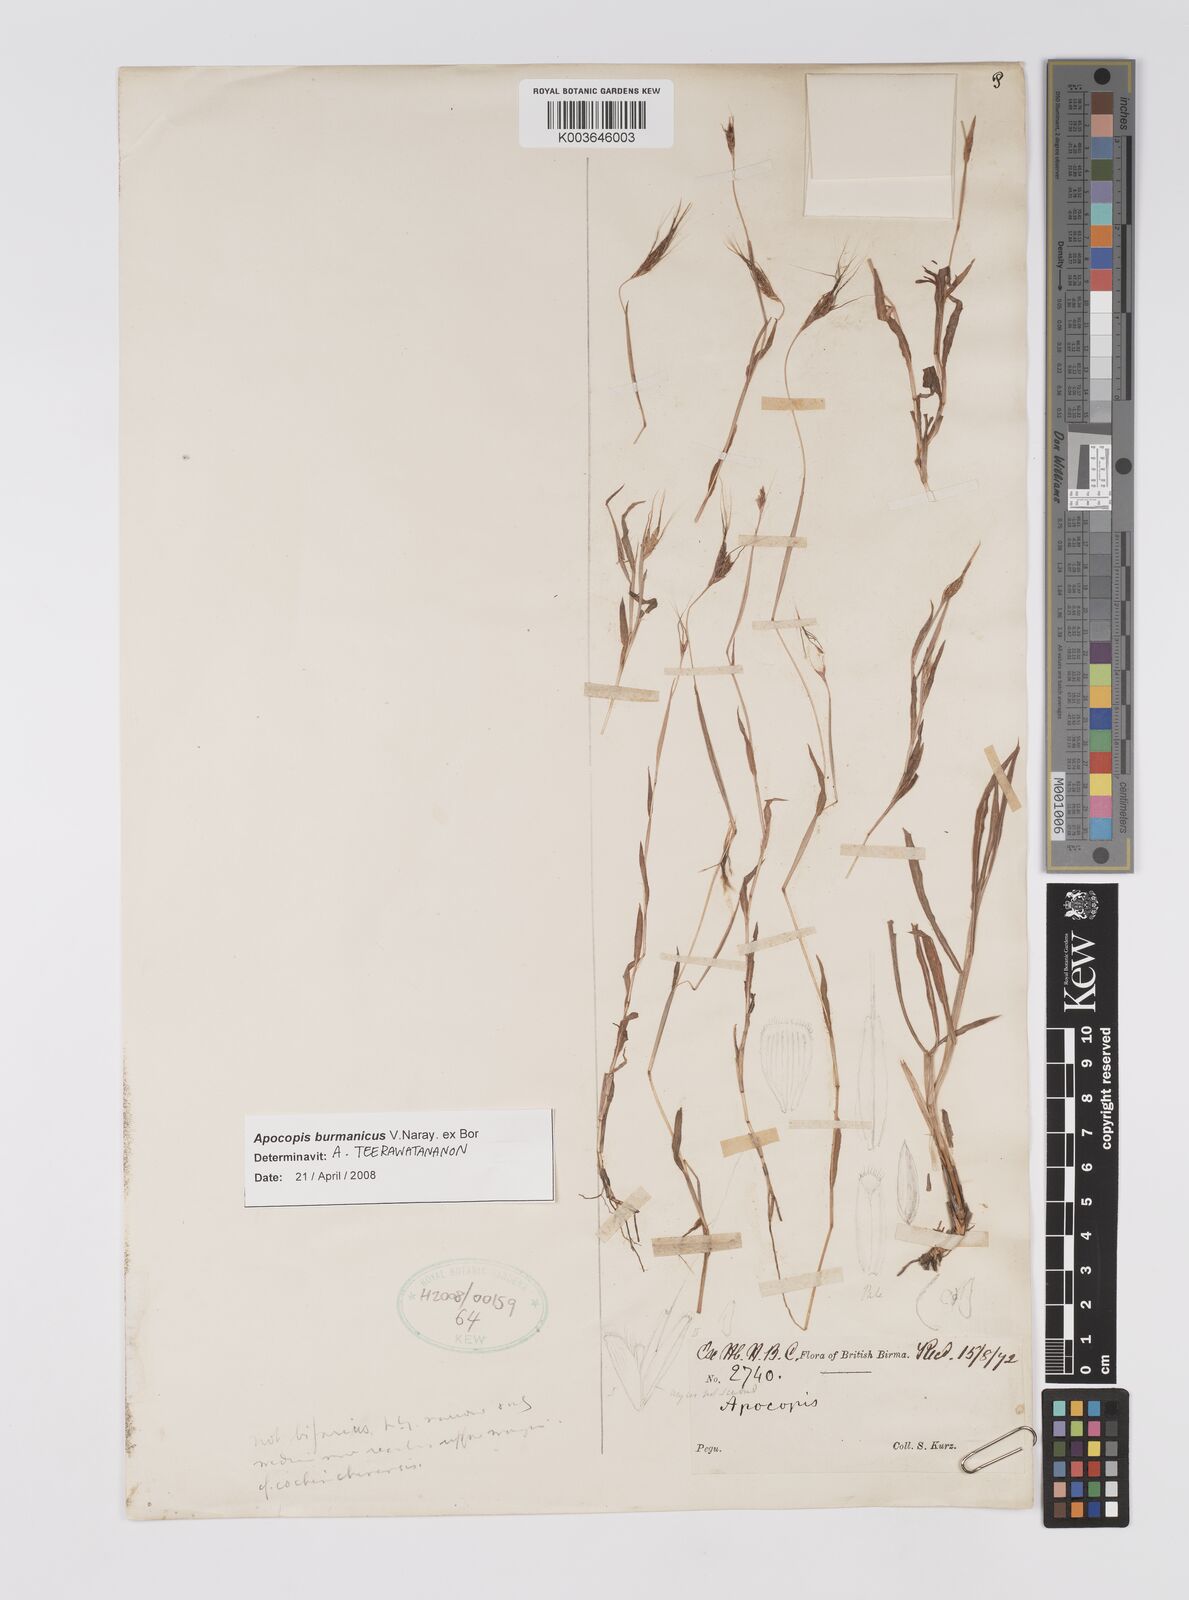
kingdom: Plantae
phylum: Tracheophyta
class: Liliopsida
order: Poales
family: Poaceae
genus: Apocopis
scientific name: Apocopis burmanicus
